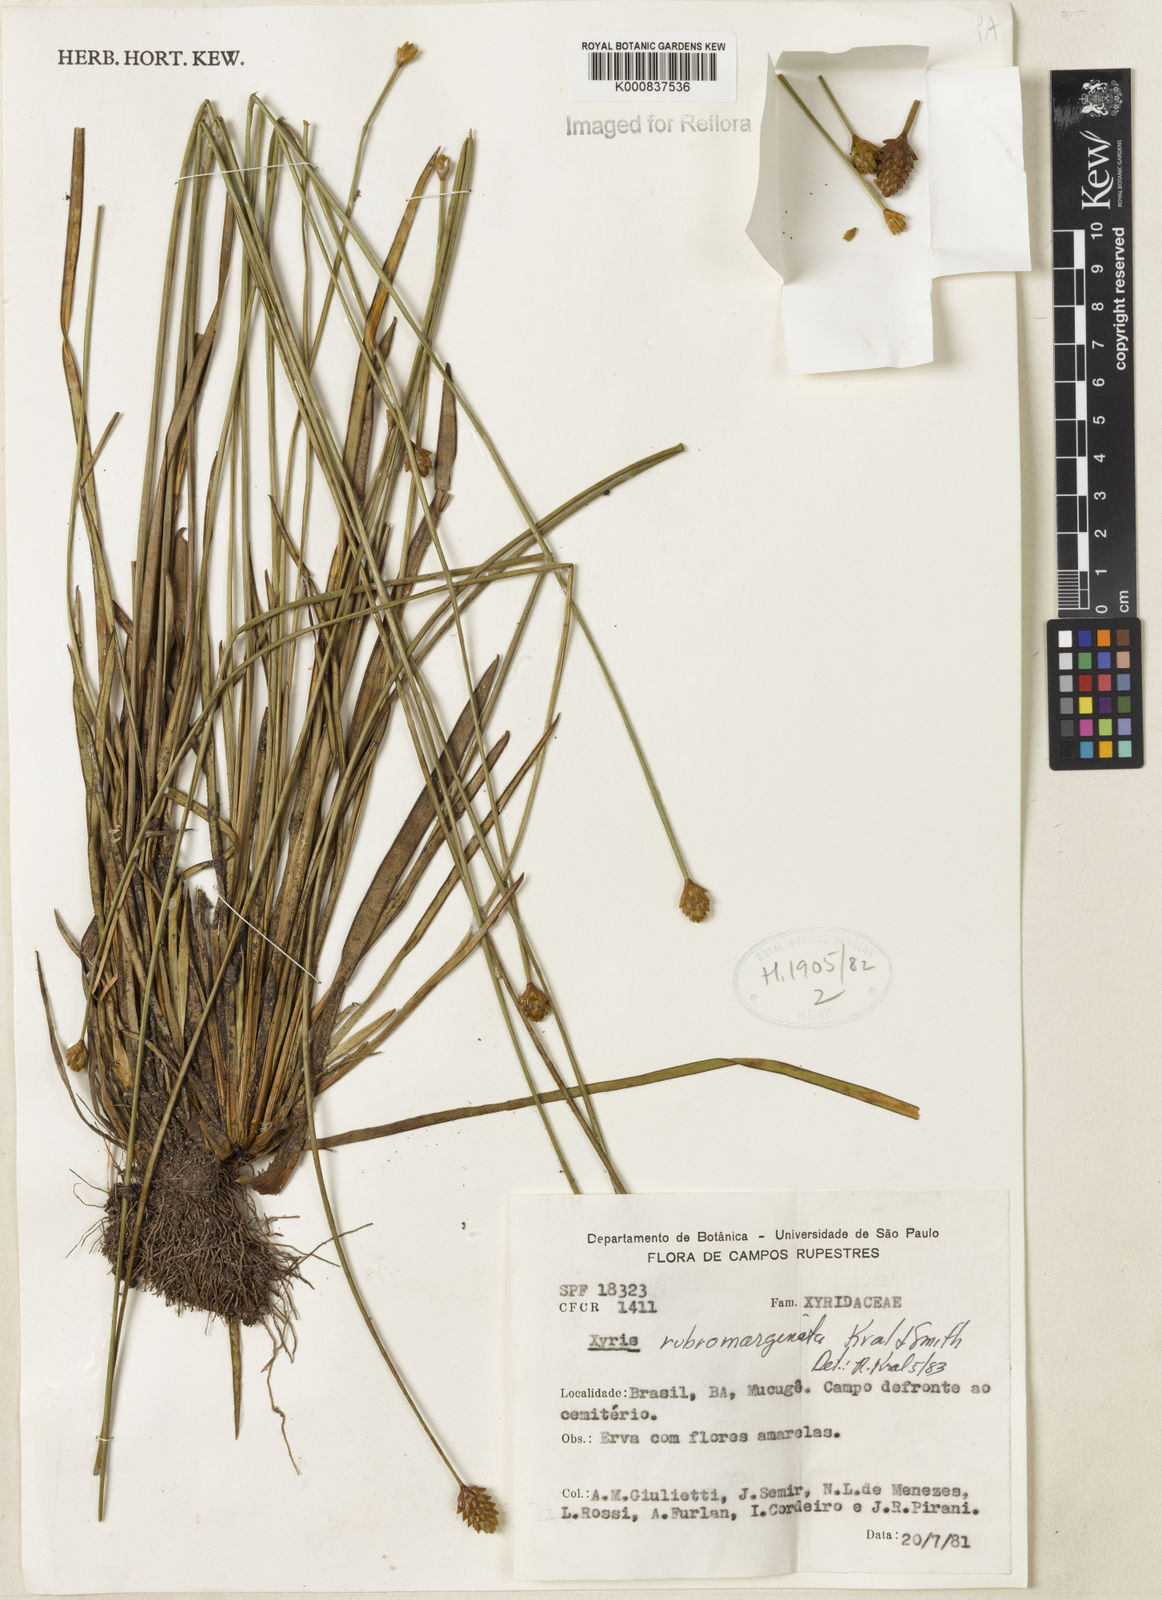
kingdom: Plantae
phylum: Tracheophyta
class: Liliopsida
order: Poales
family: Xyridaceae
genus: Xyris
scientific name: Xyris rubromarginata
